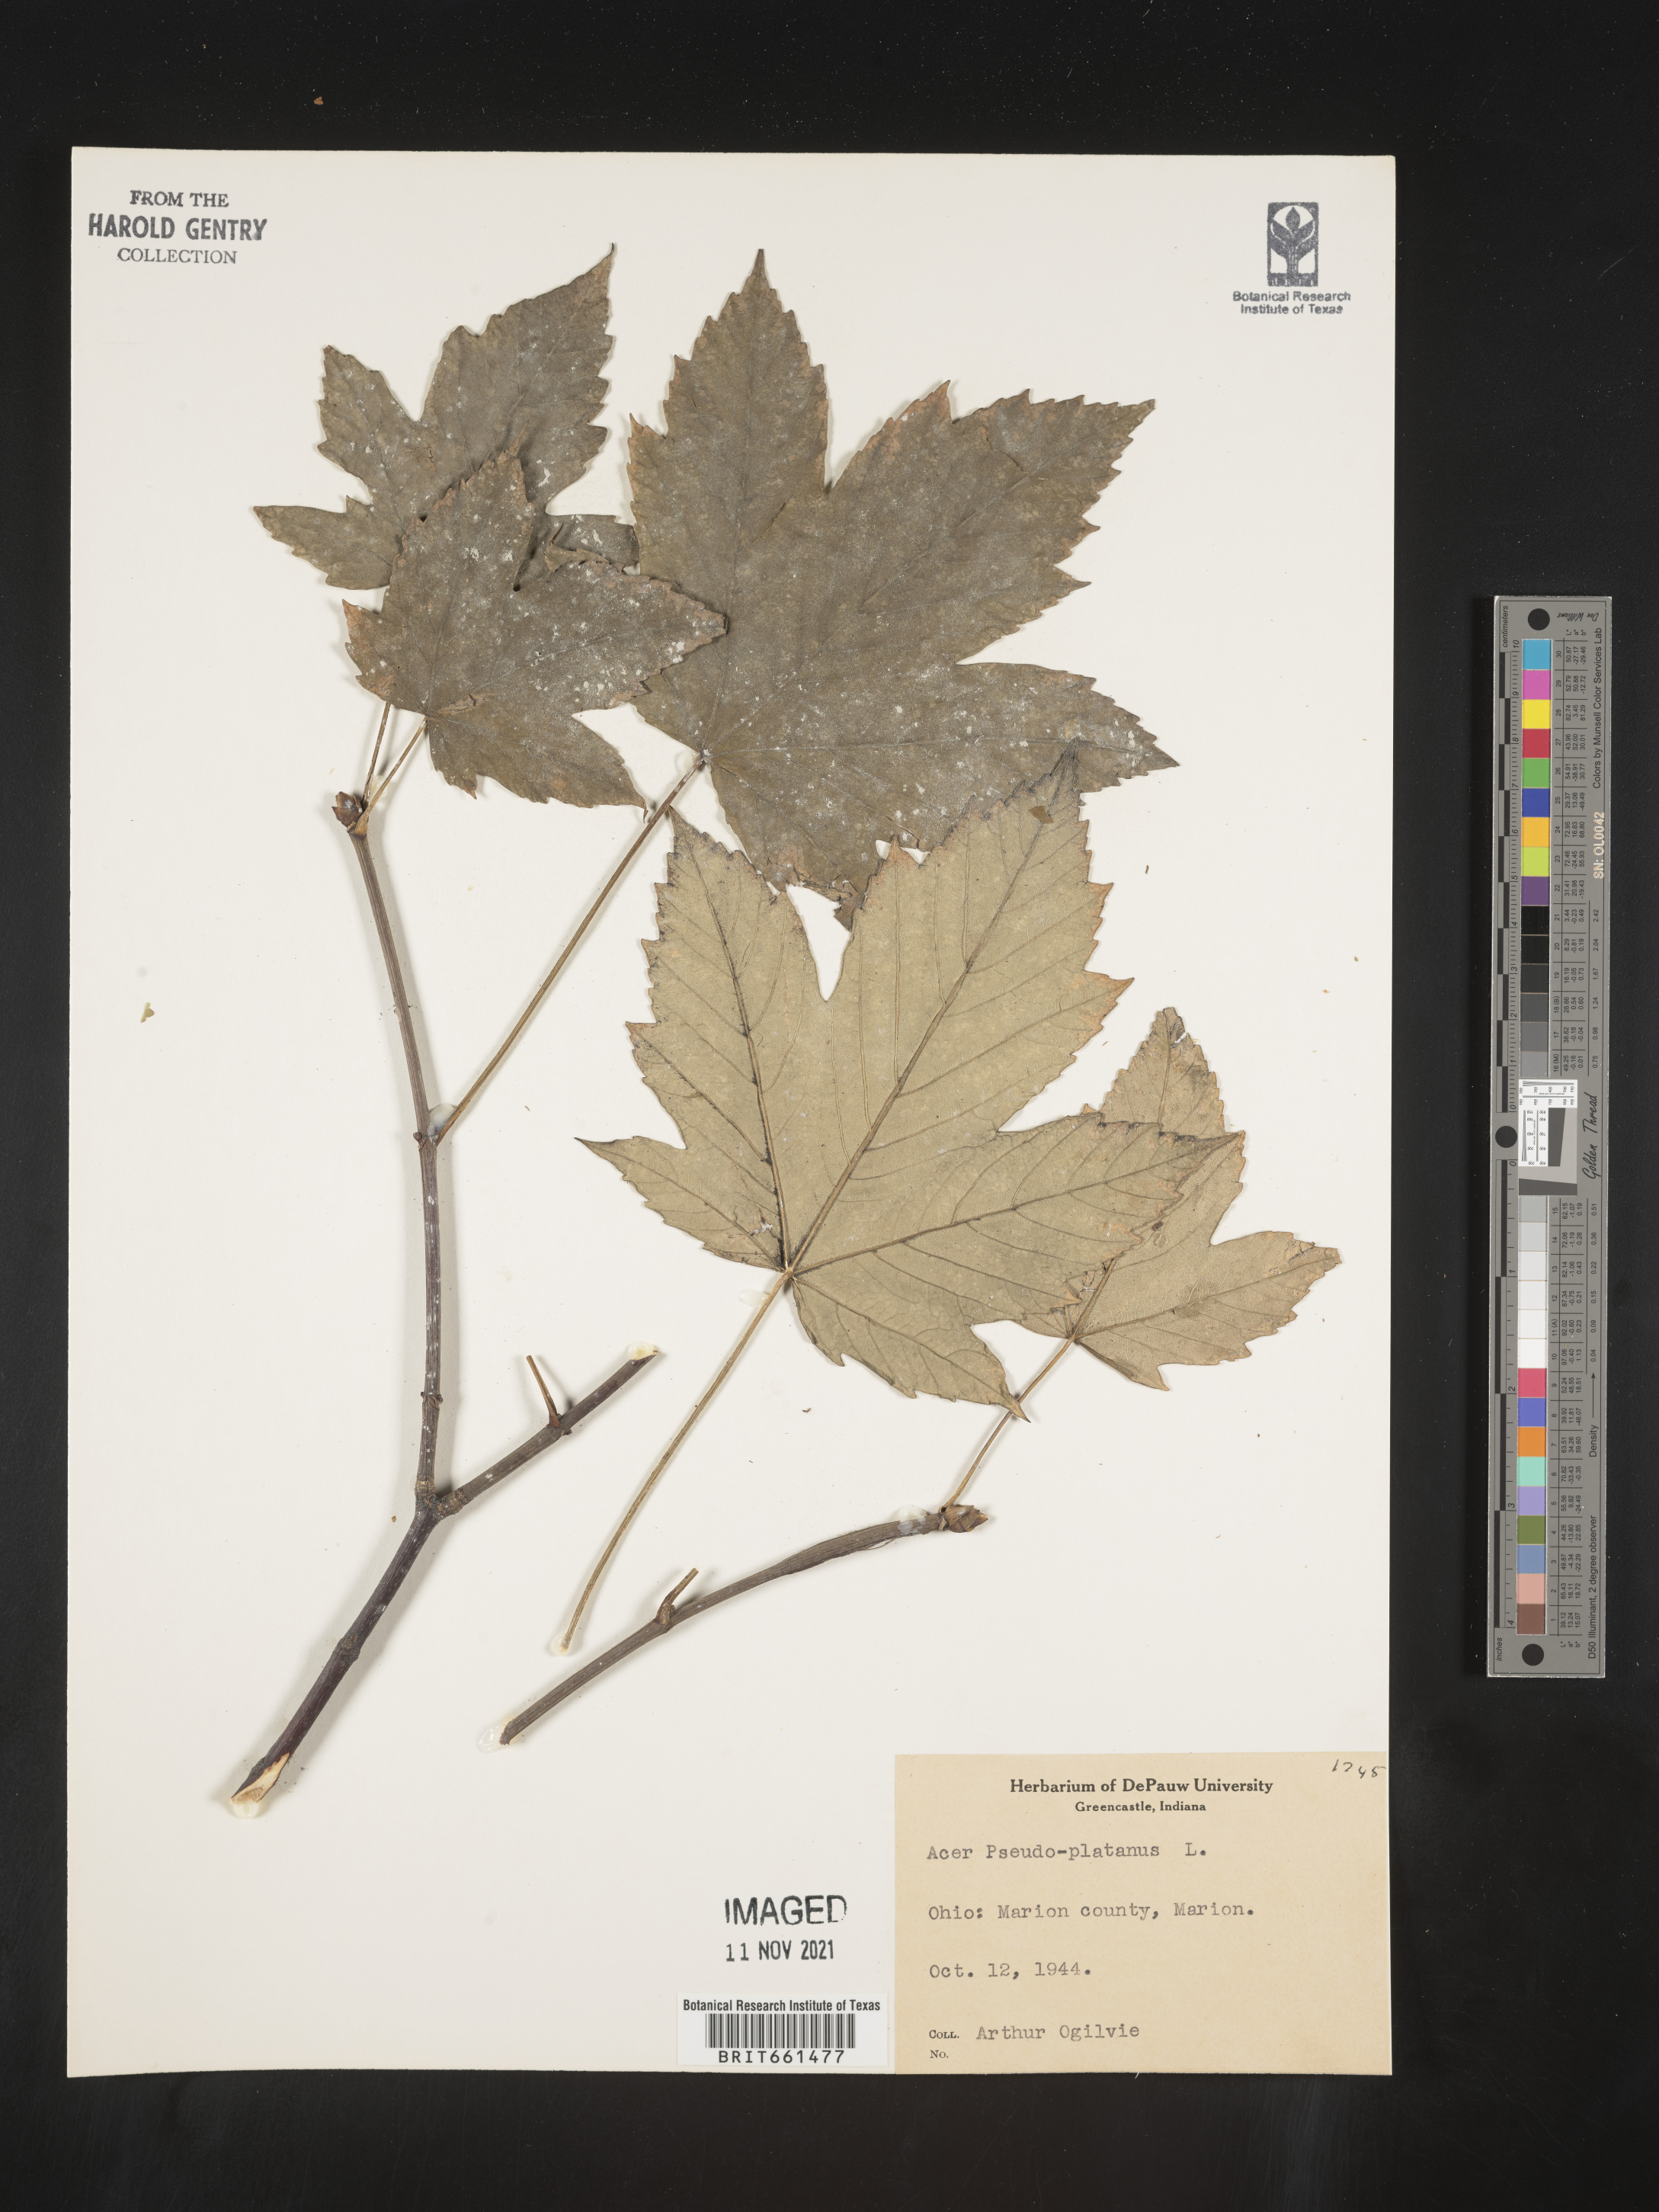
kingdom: Plantae
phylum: Tracheophyta
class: Magnoliopsida
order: Sapindales
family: Sapindaceae
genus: Acer
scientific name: Acer
